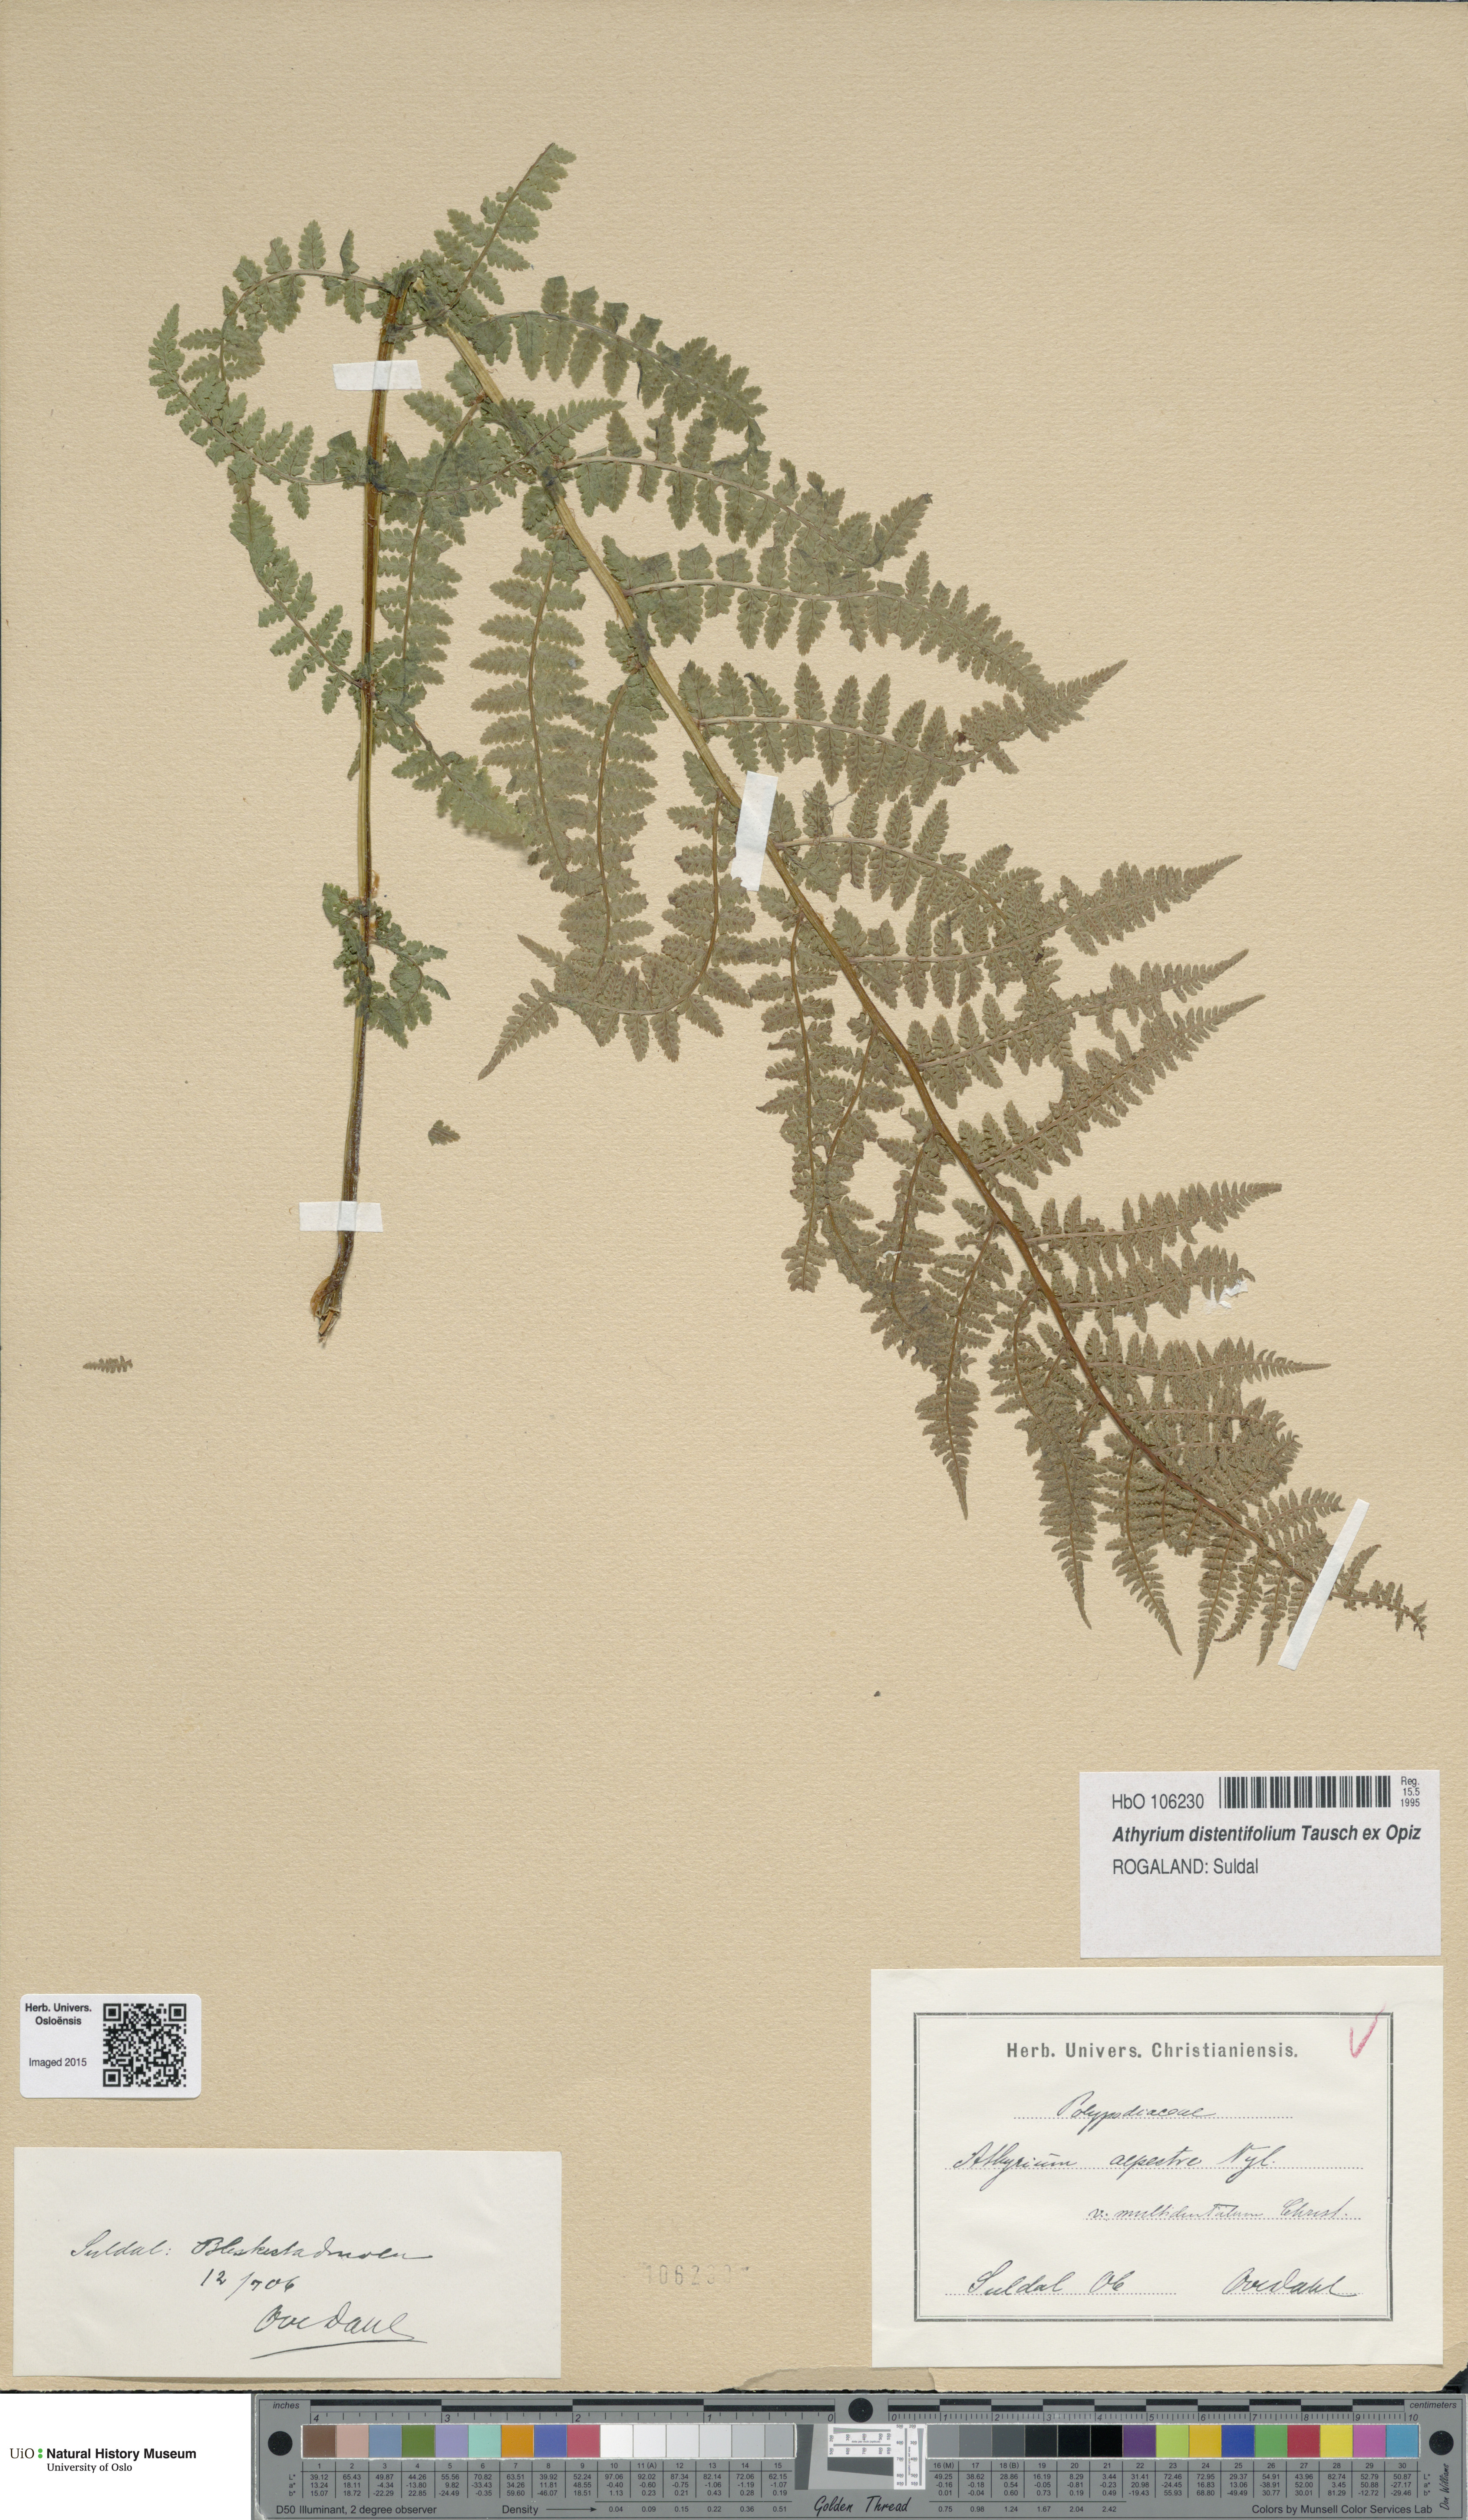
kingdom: Plantae
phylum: Tracheophyta
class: Polypodiopsida
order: Polypodiales
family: Athyriaceae
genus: Pseudathyrium
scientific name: Pseudathyrium alpestre
